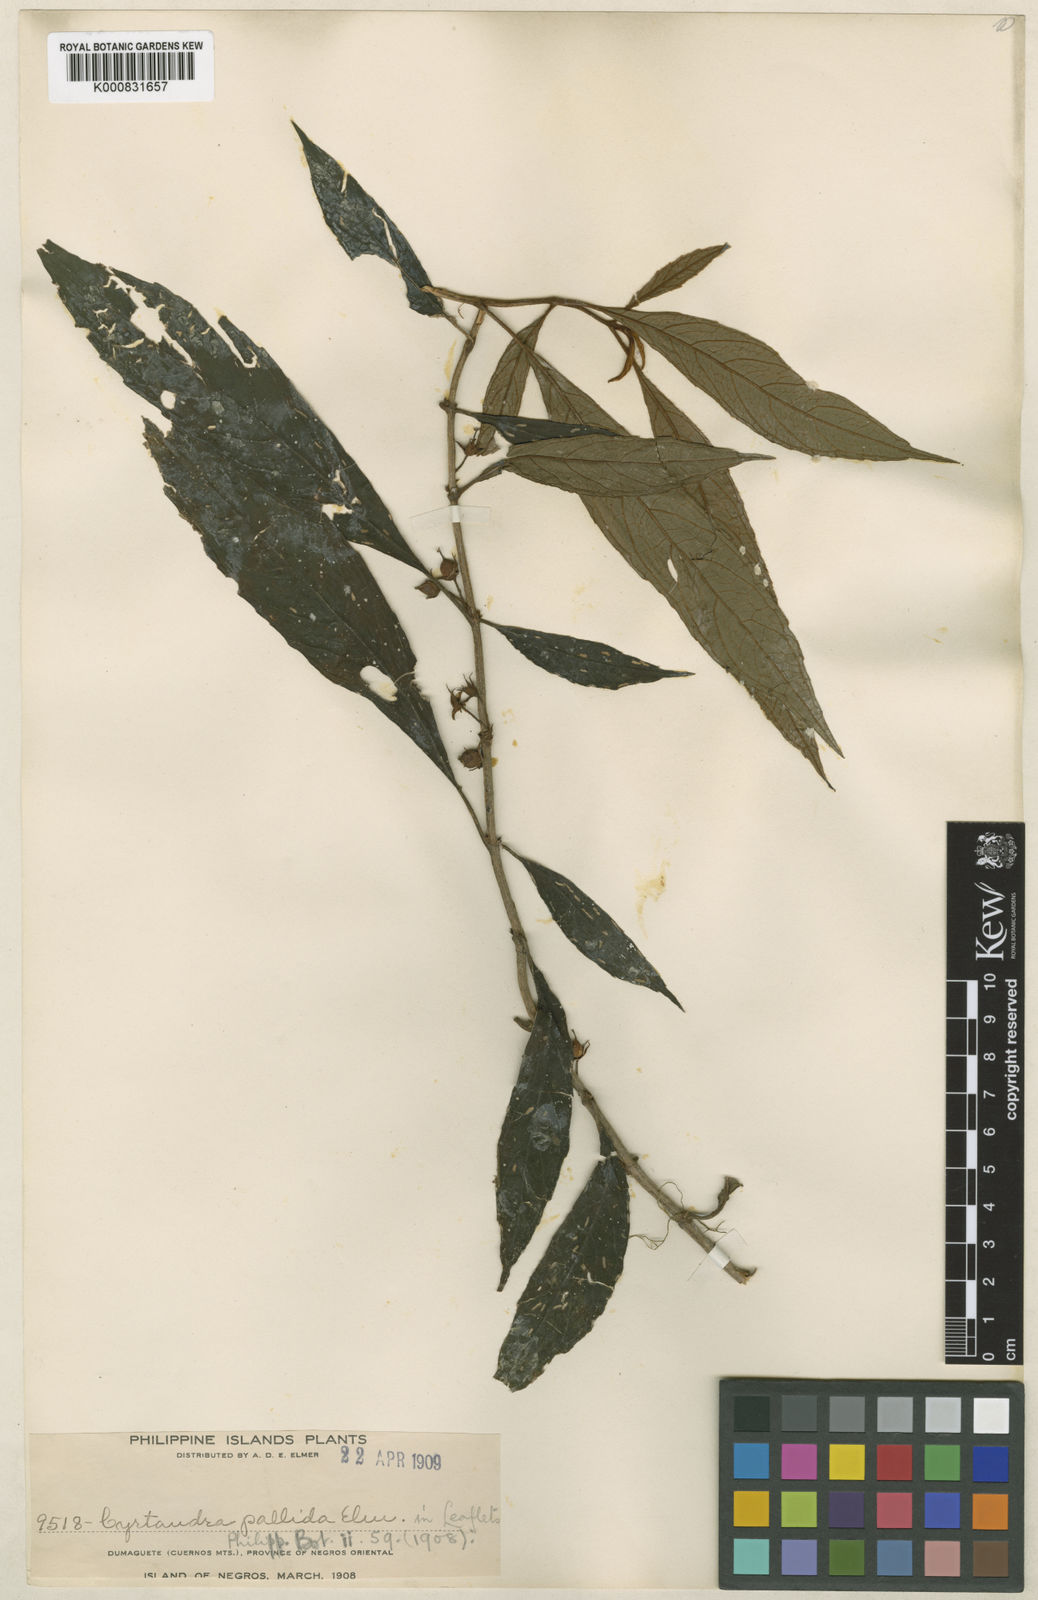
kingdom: Plantae
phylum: Tracheophyta
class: Magnoliopsida
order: Lamiales
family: Gesneriaceae
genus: Cyrtandra
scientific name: Cyrtandra pallida
